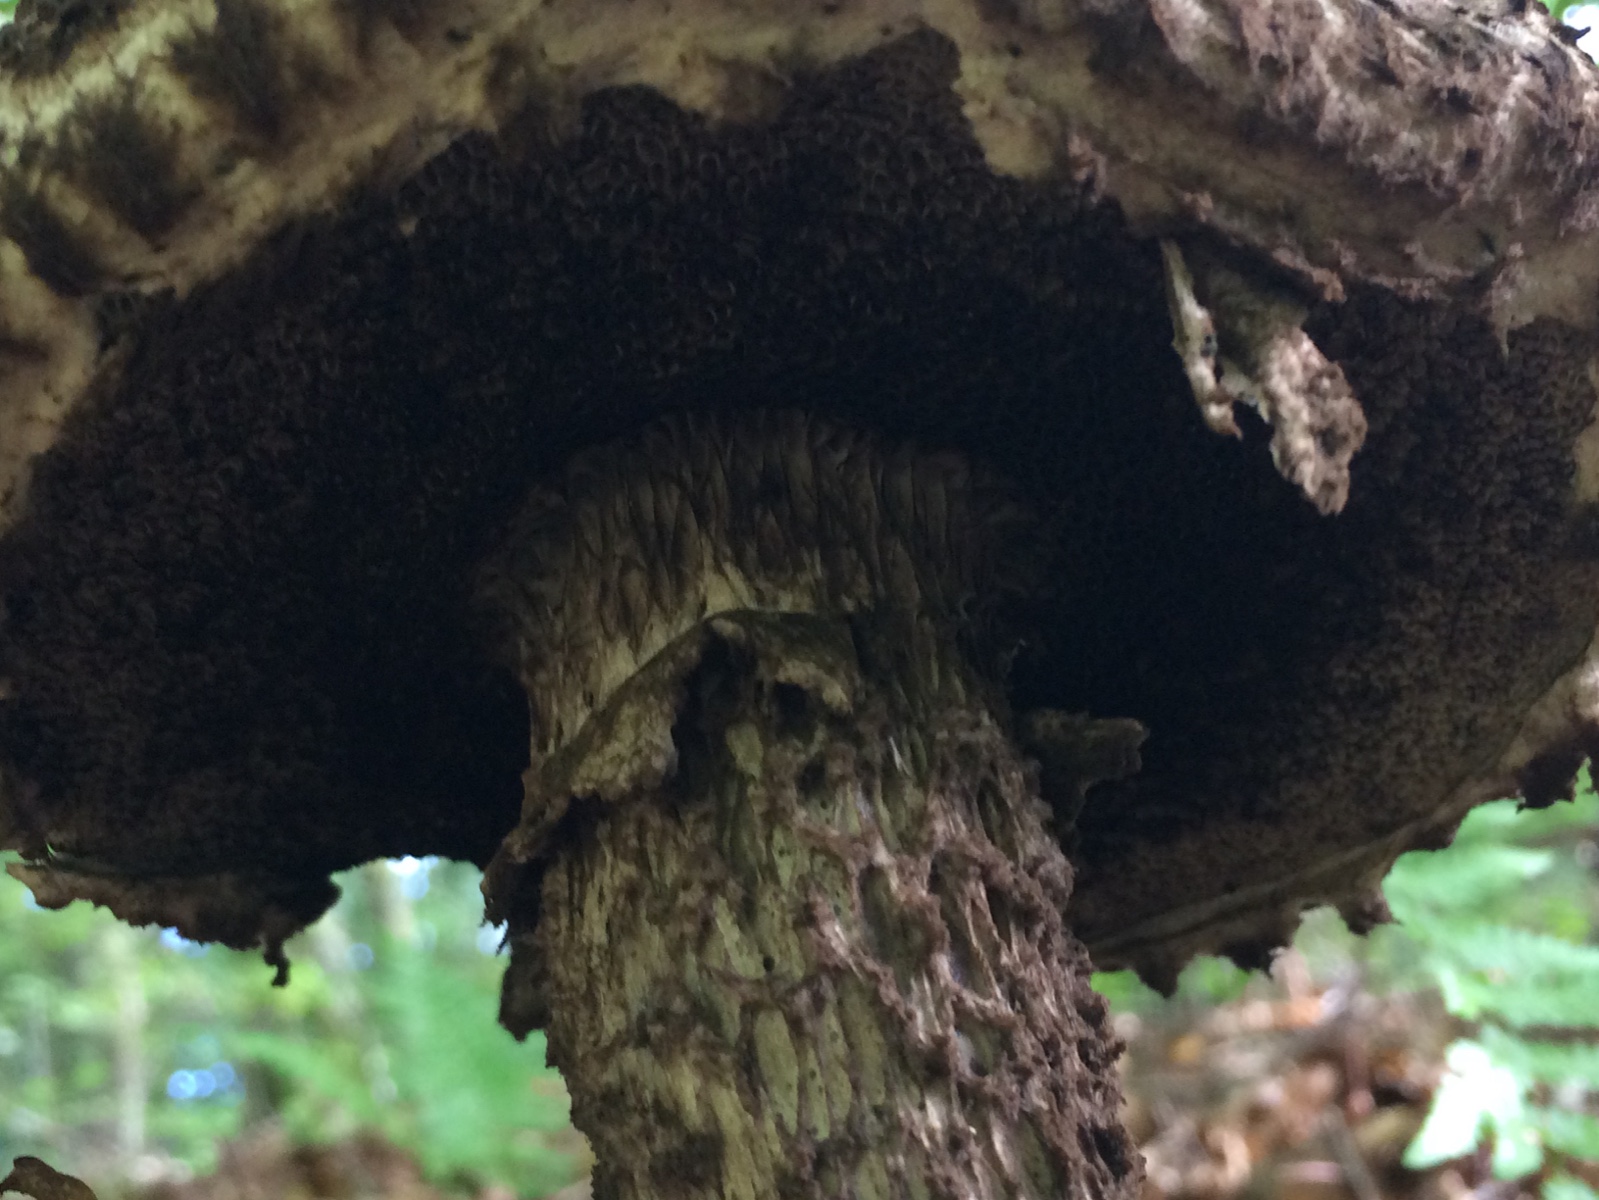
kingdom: Fungi
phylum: Basidiomycota
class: Agaricomycetes
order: Boletales
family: Boletaceae
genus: Strobilomyces
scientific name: Strobilomyces strobilaceus
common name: koglerørhat
